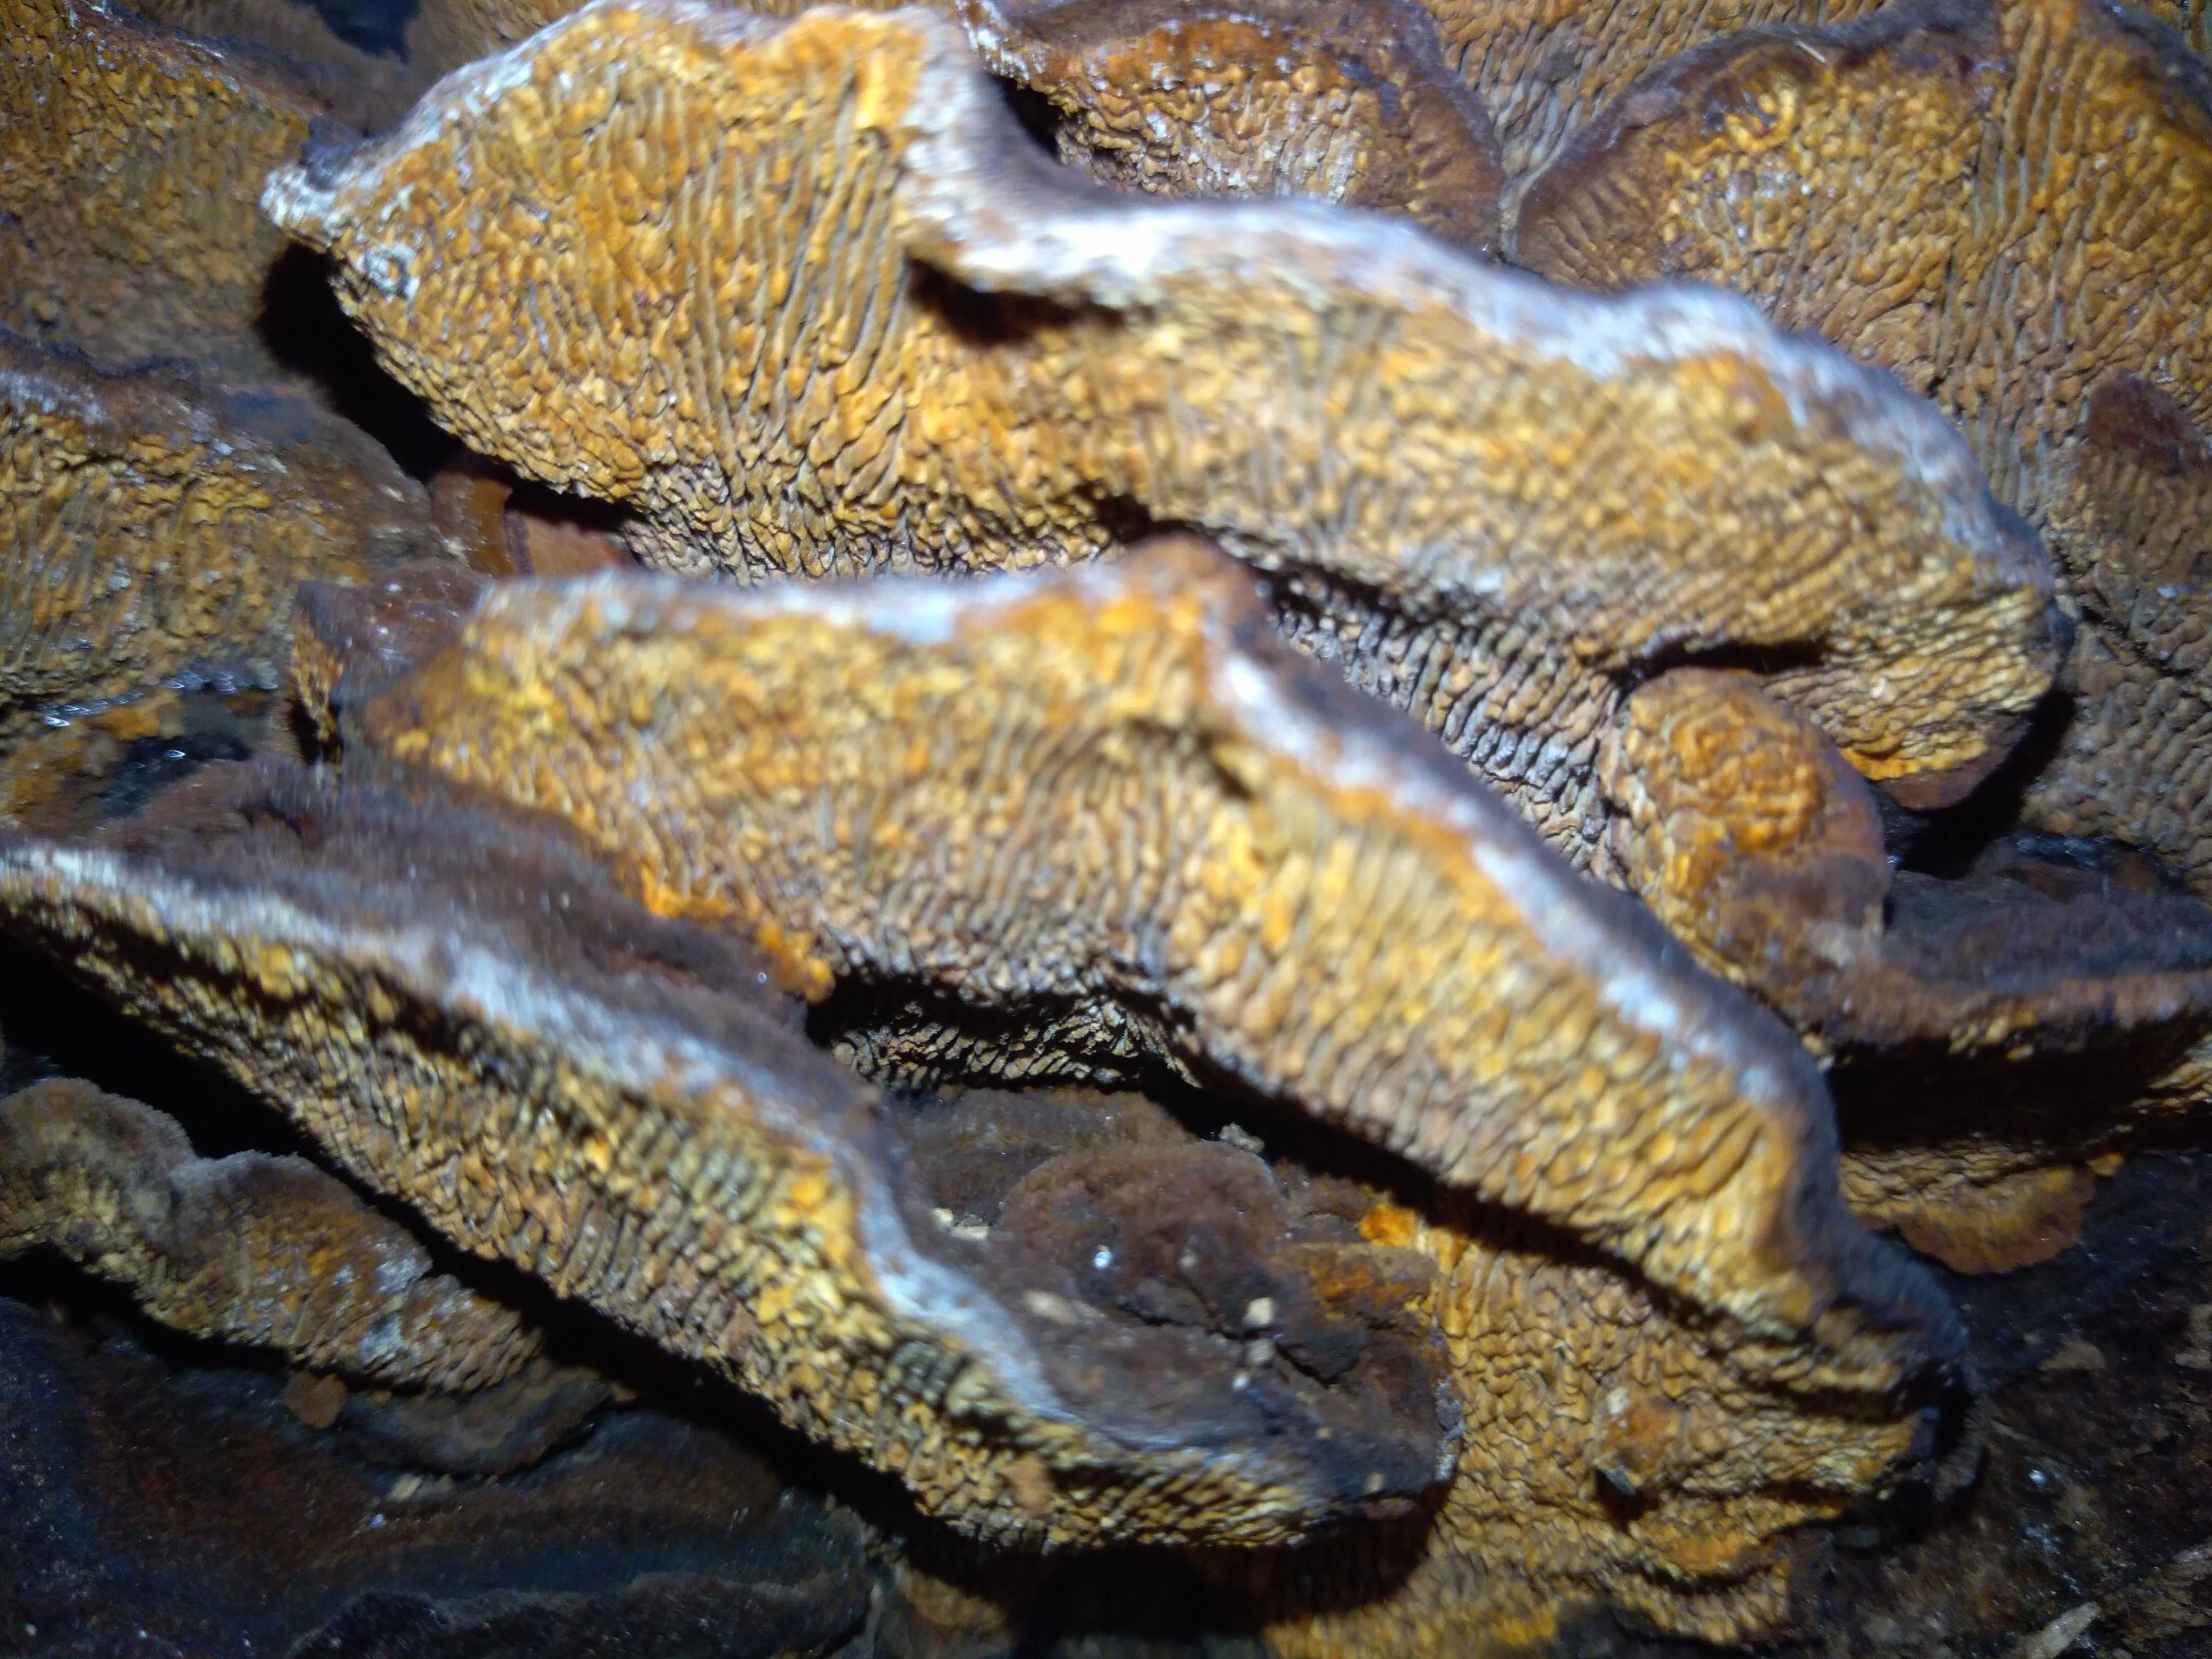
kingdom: Fungi
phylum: Basidiomycota
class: Agaricomycetes
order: Gloeophyllales
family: Gloeophyllaceae
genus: Gloeophyllum
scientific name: Gloeophyllum sepiarium
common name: fyrre-korkhat
